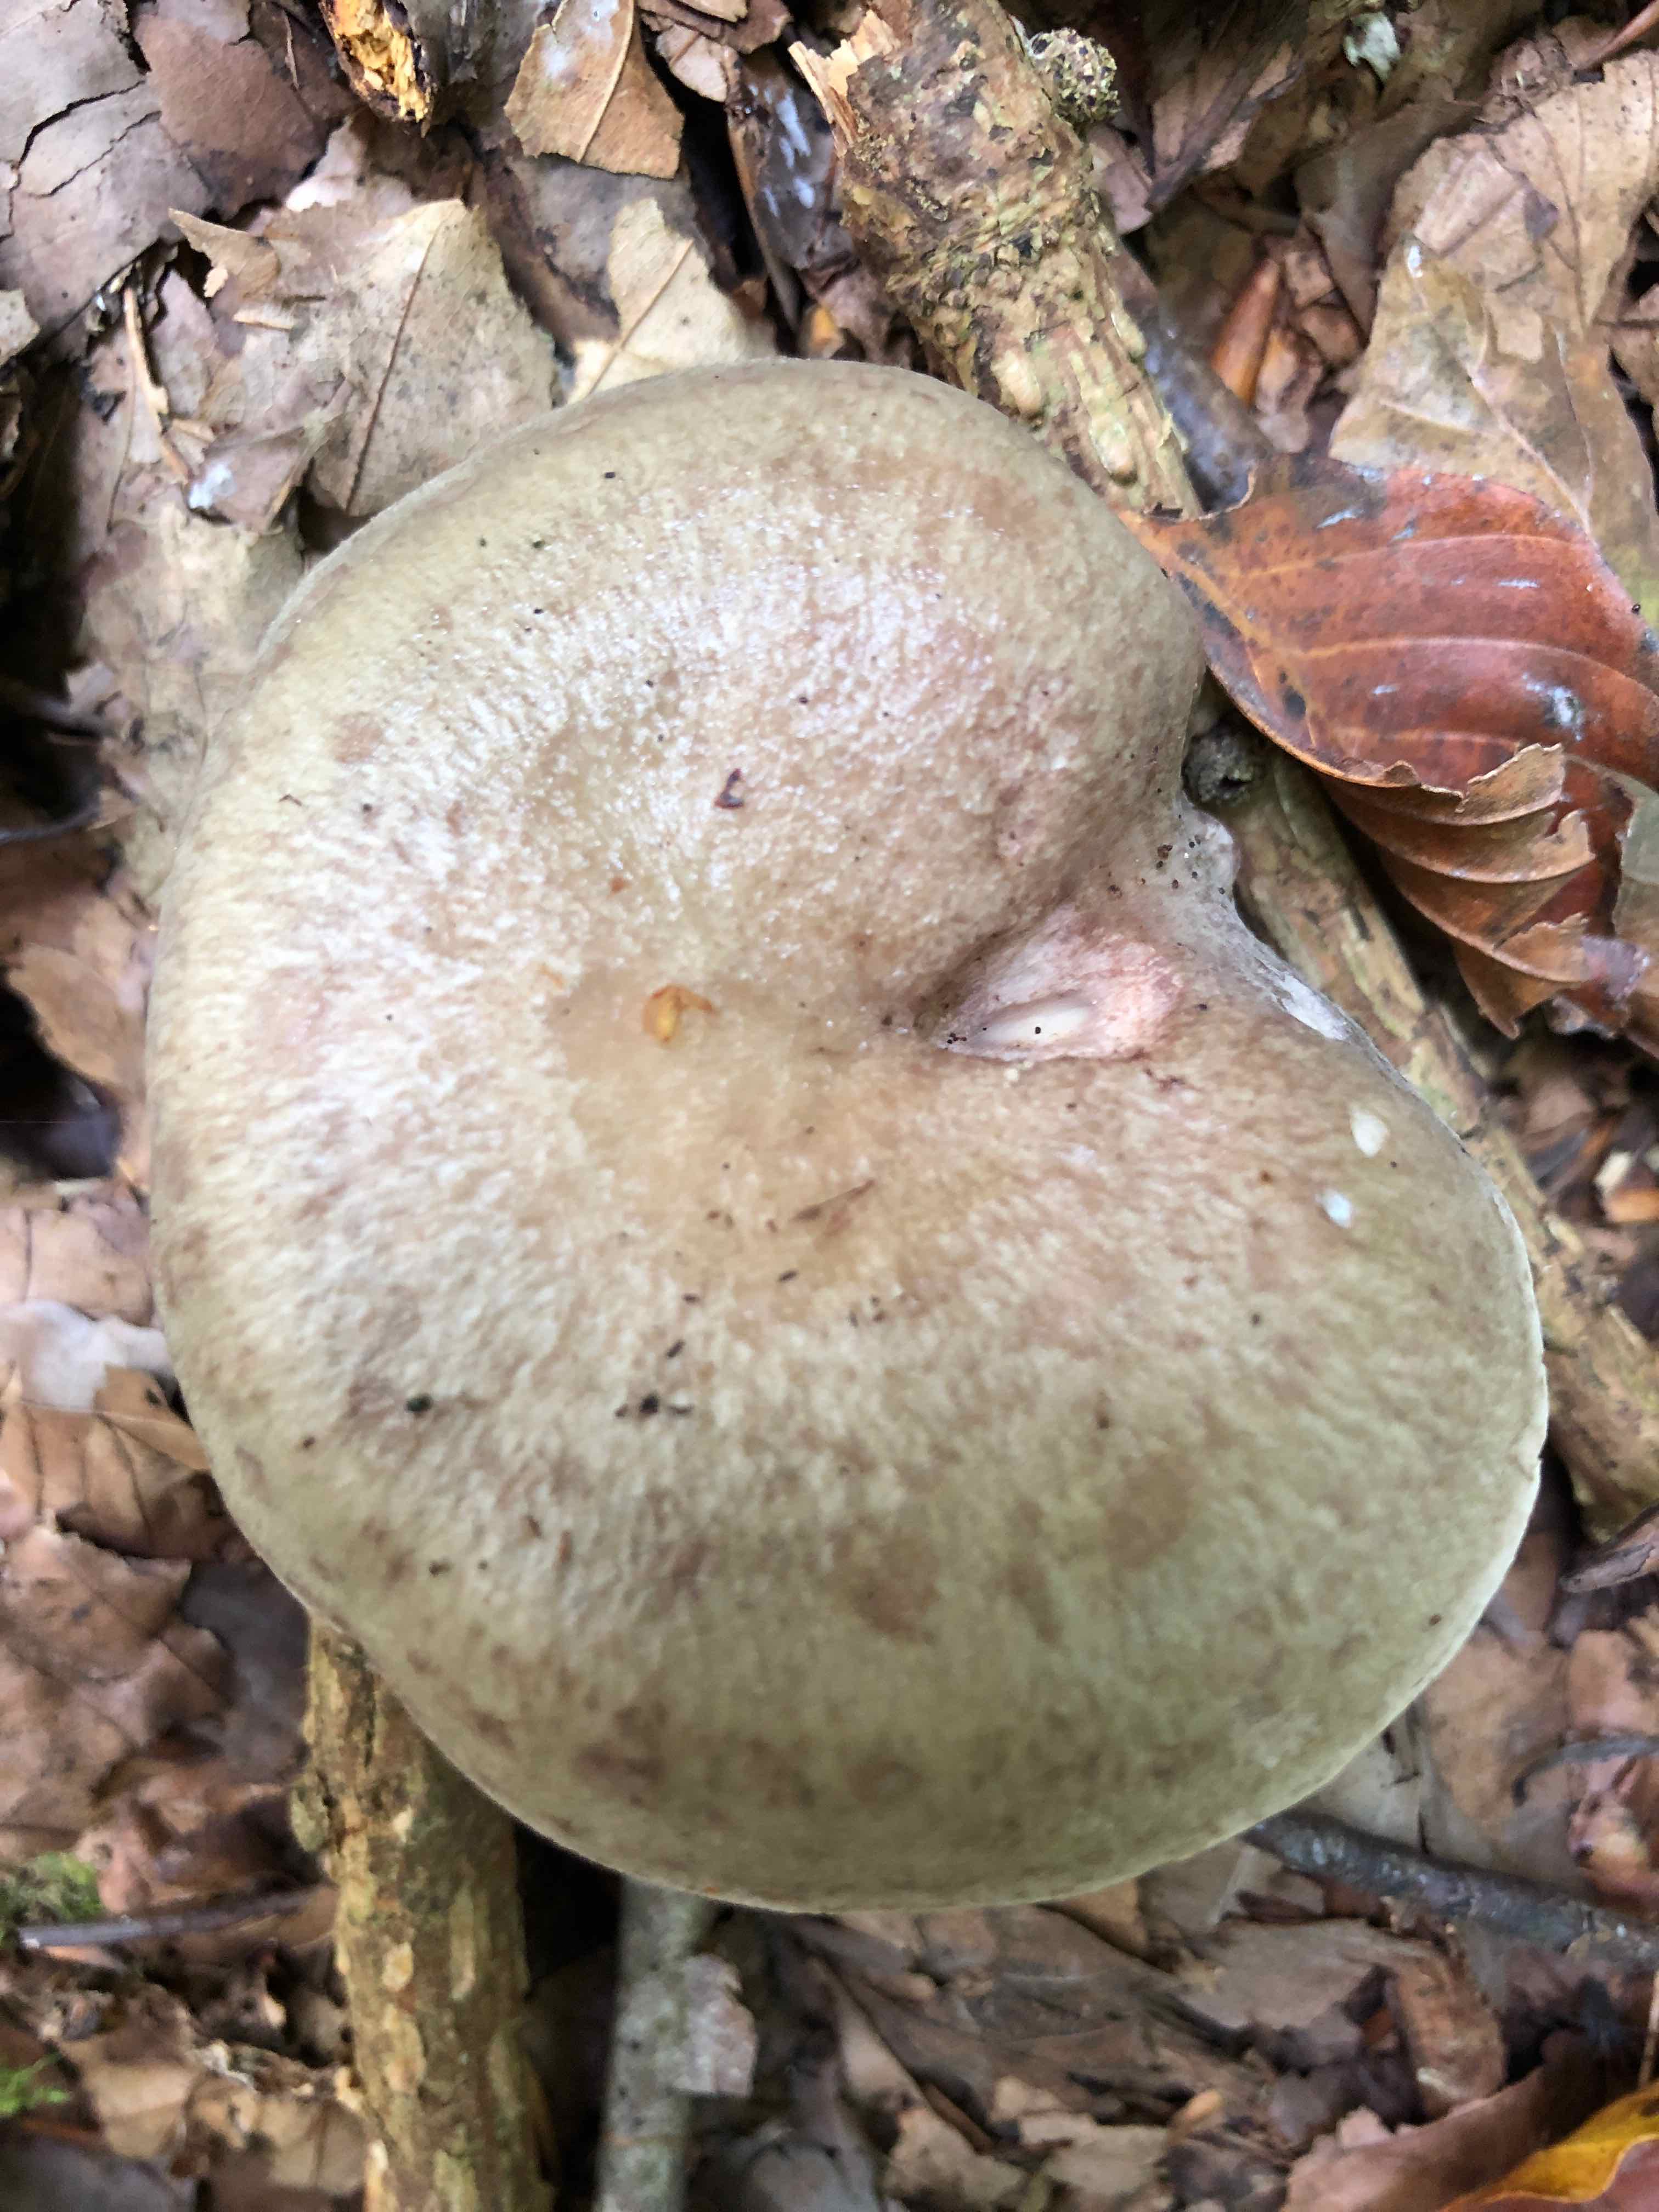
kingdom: Fungi
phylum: Basidiomycota
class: Agaricomycetes
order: Russulales
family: Russulaceae
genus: Lactarius
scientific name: Lactarius blennius
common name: dråbeplettet mælkehat
